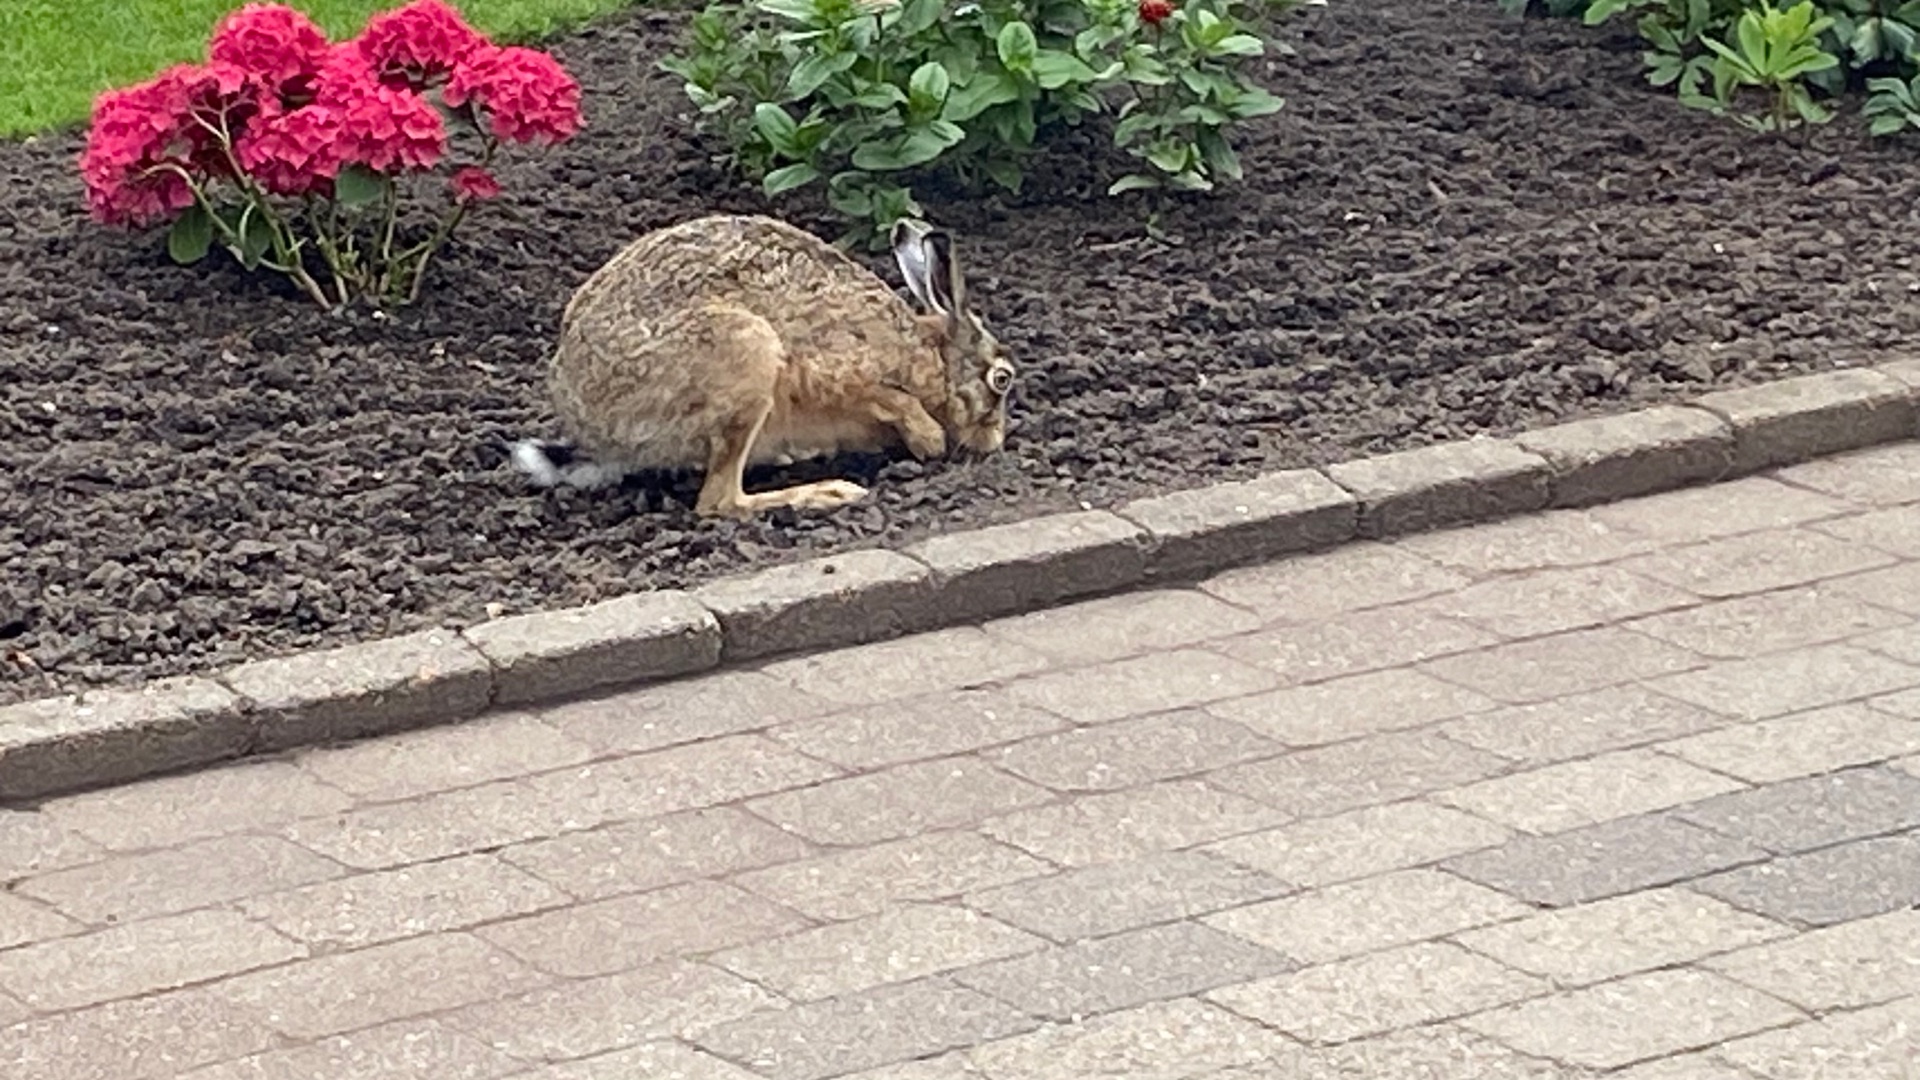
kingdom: Animalia
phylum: Chordata
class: Mammalia
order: Lagomorpha
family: Leporidae
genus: Lepus
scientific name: Lepus europaeus
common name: Hare
